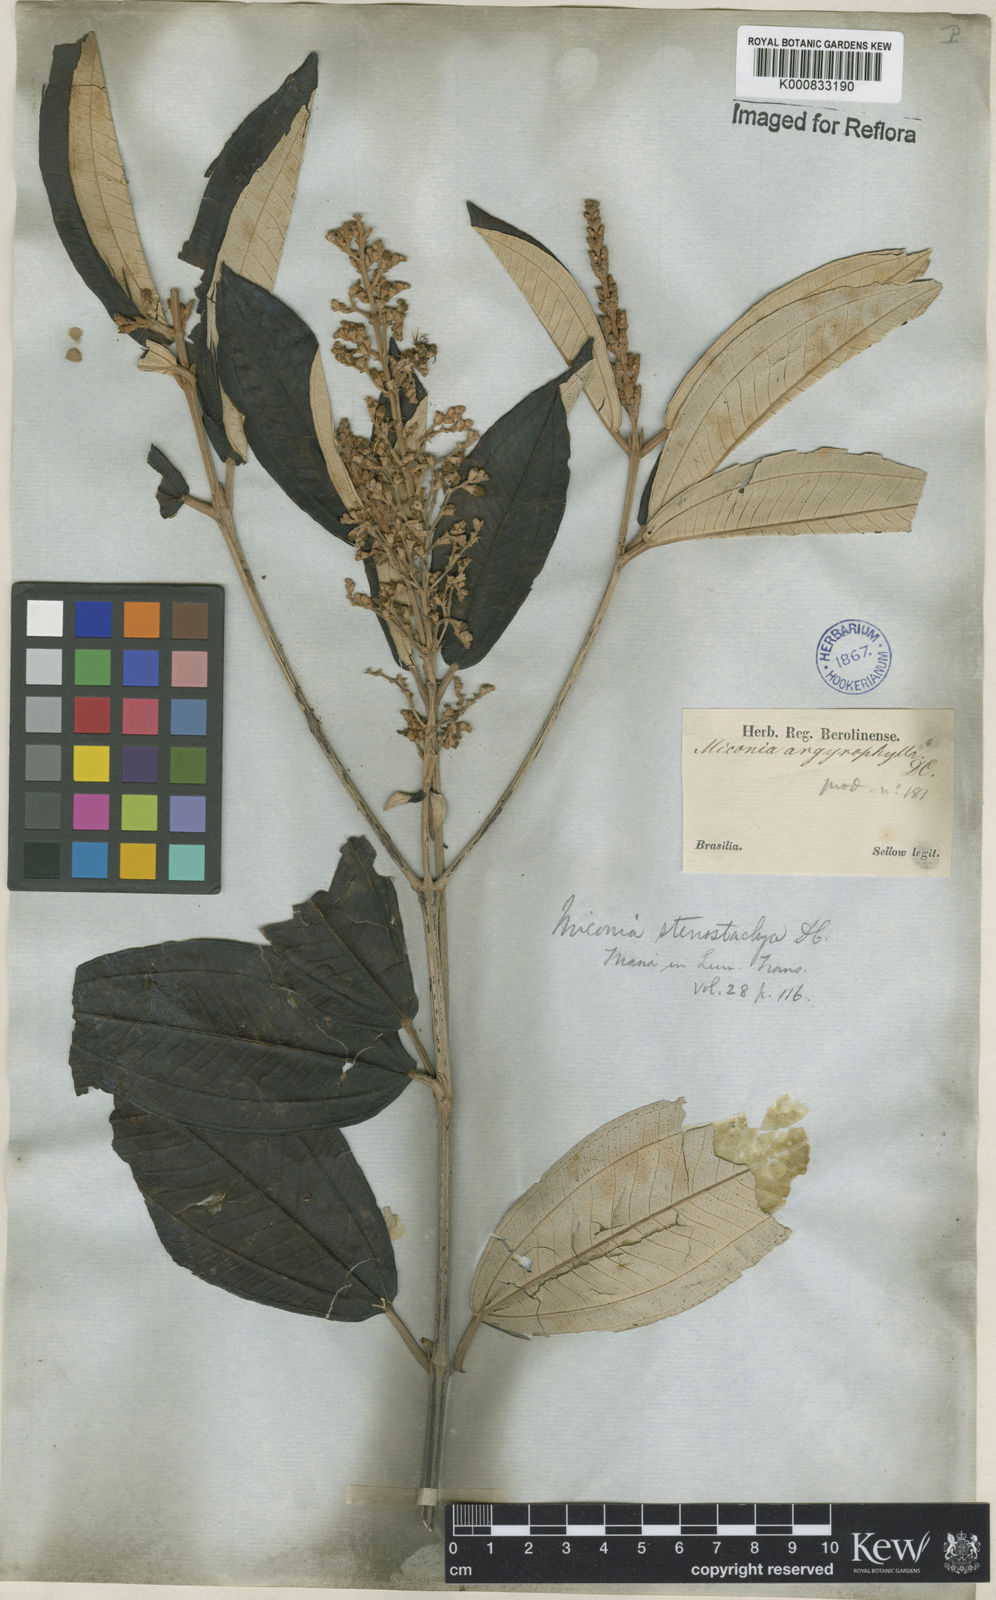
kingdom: Plantae
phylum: Tracheophyta
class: Magnoliopsida
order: Myrtales
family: Melastomataceae
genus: Miconia
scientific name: Miconia stenostachya
